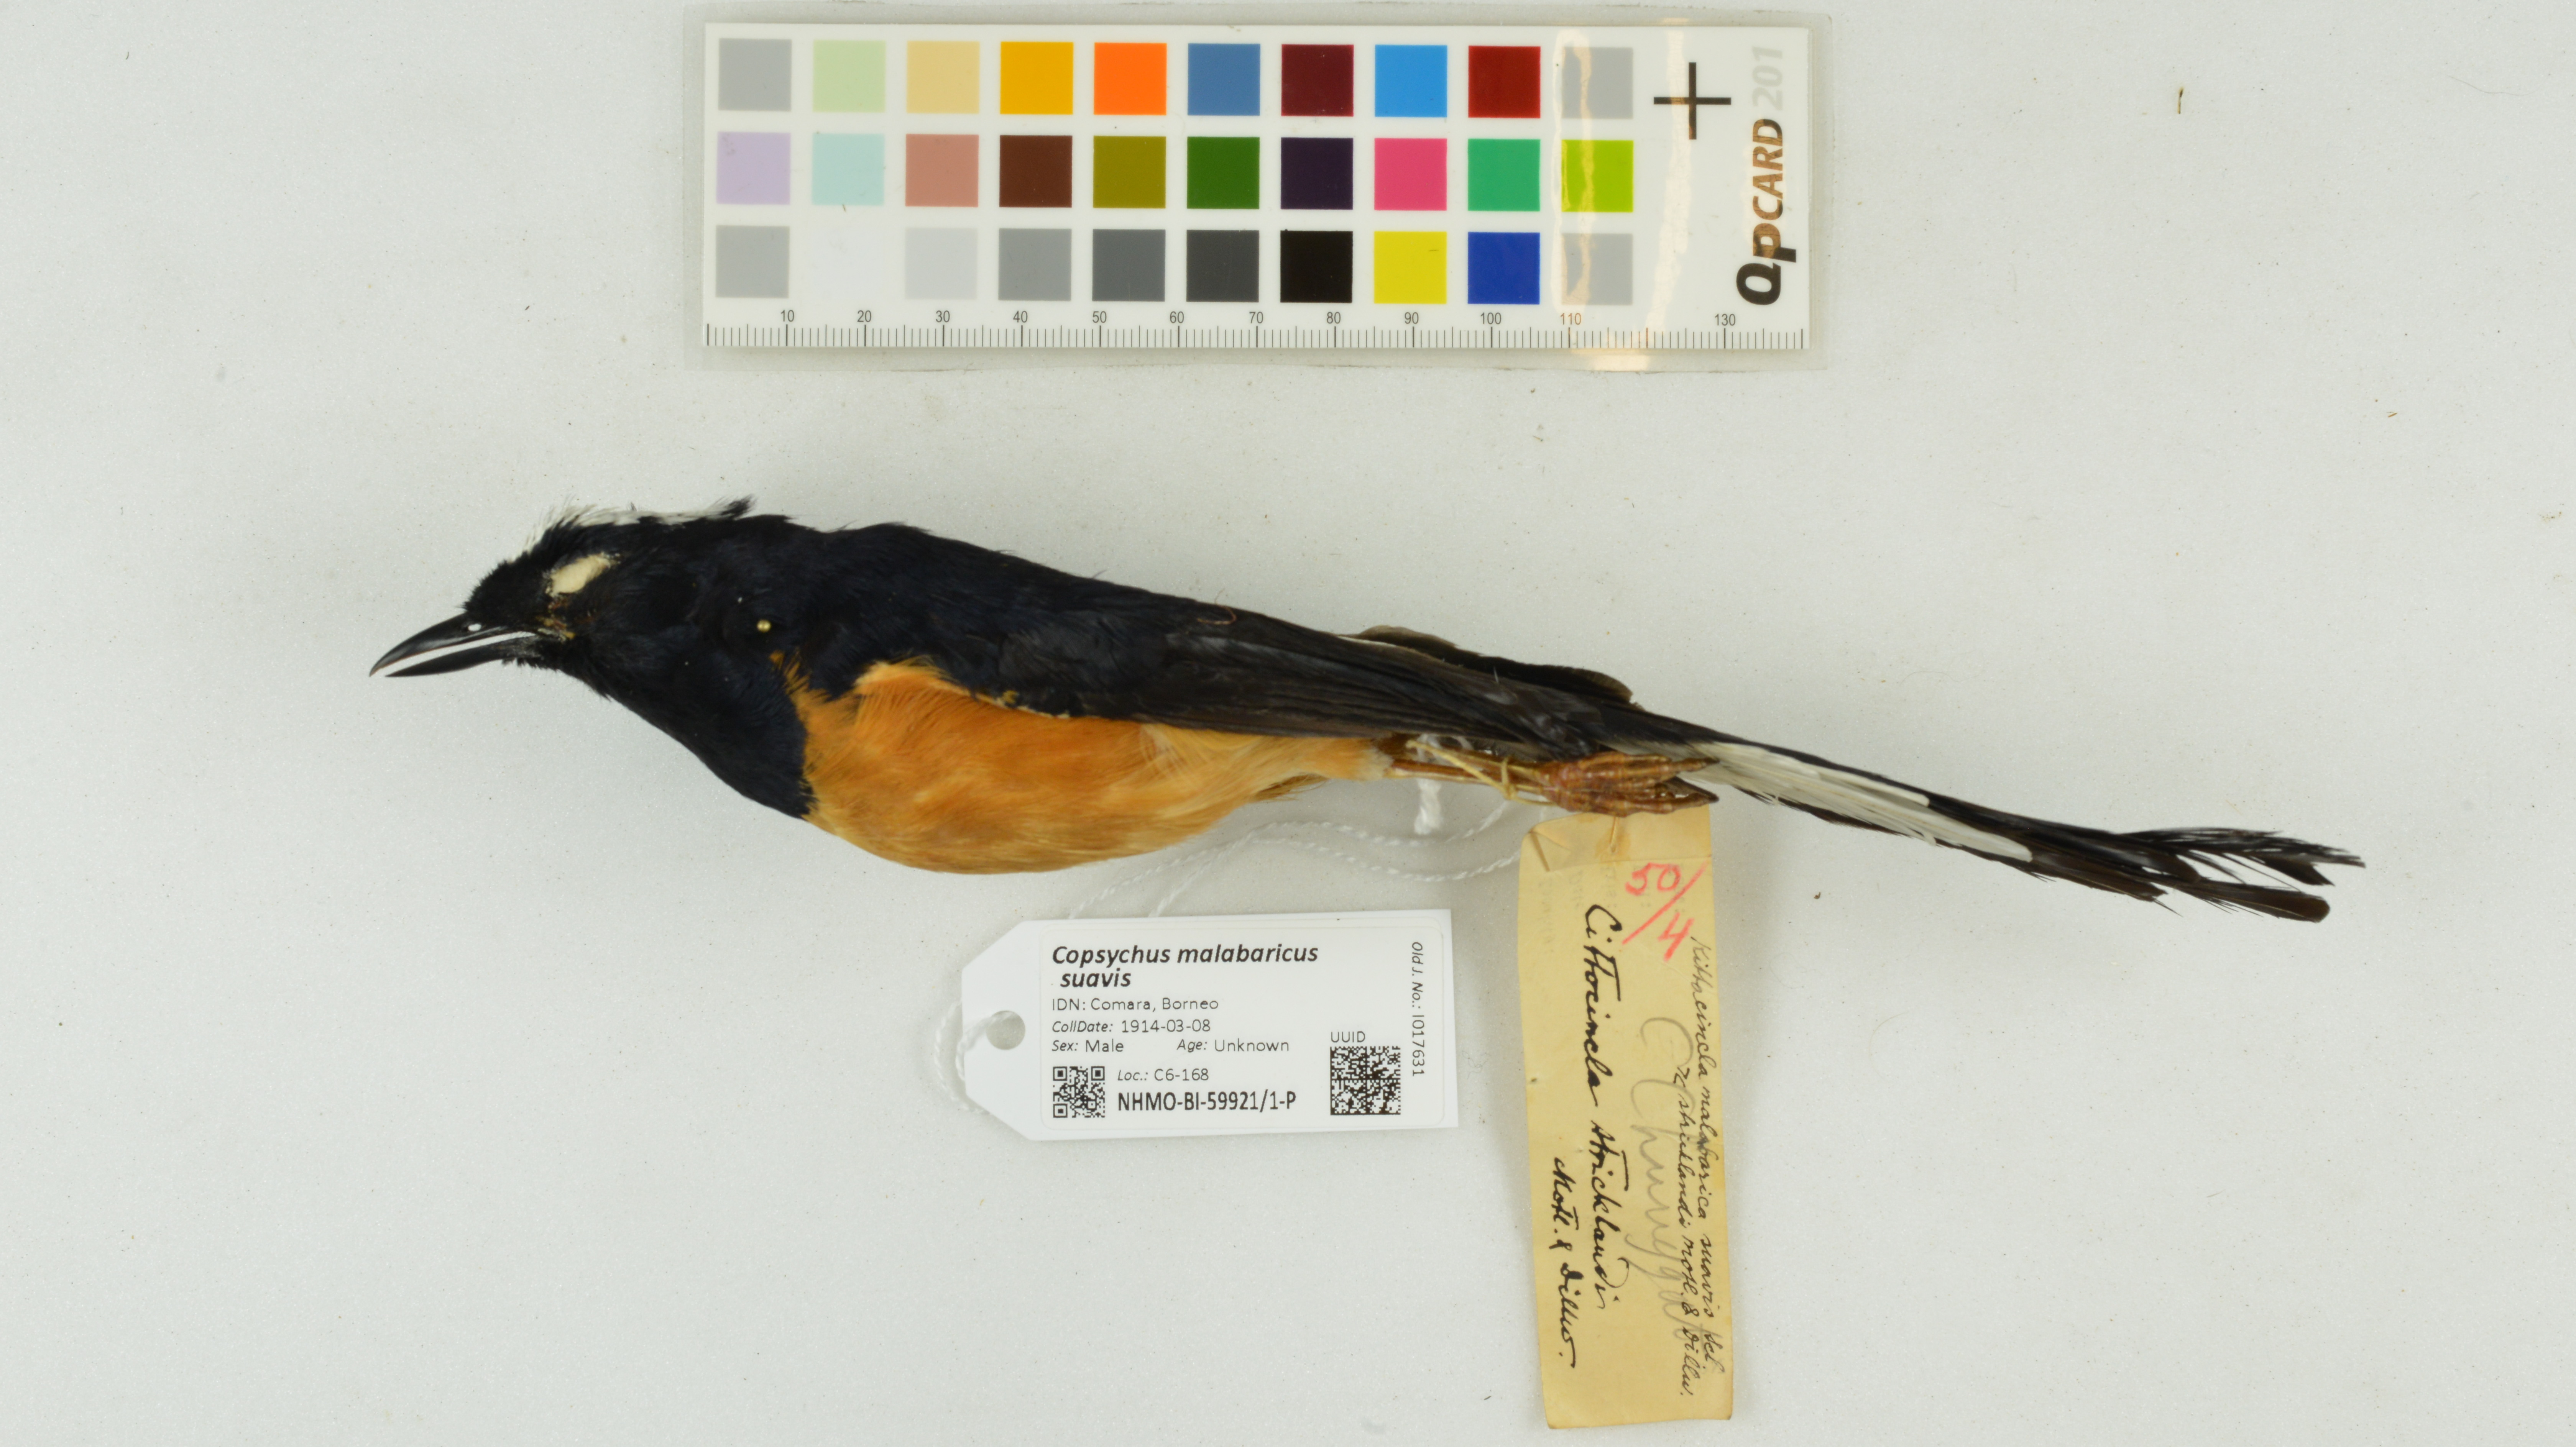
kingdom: Animalia
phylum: Chordata
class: Aves
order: Passeriformes
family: Muscicapidae
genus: Copsychus
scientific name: Copsychus malabaricus
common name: White-rumped shama
